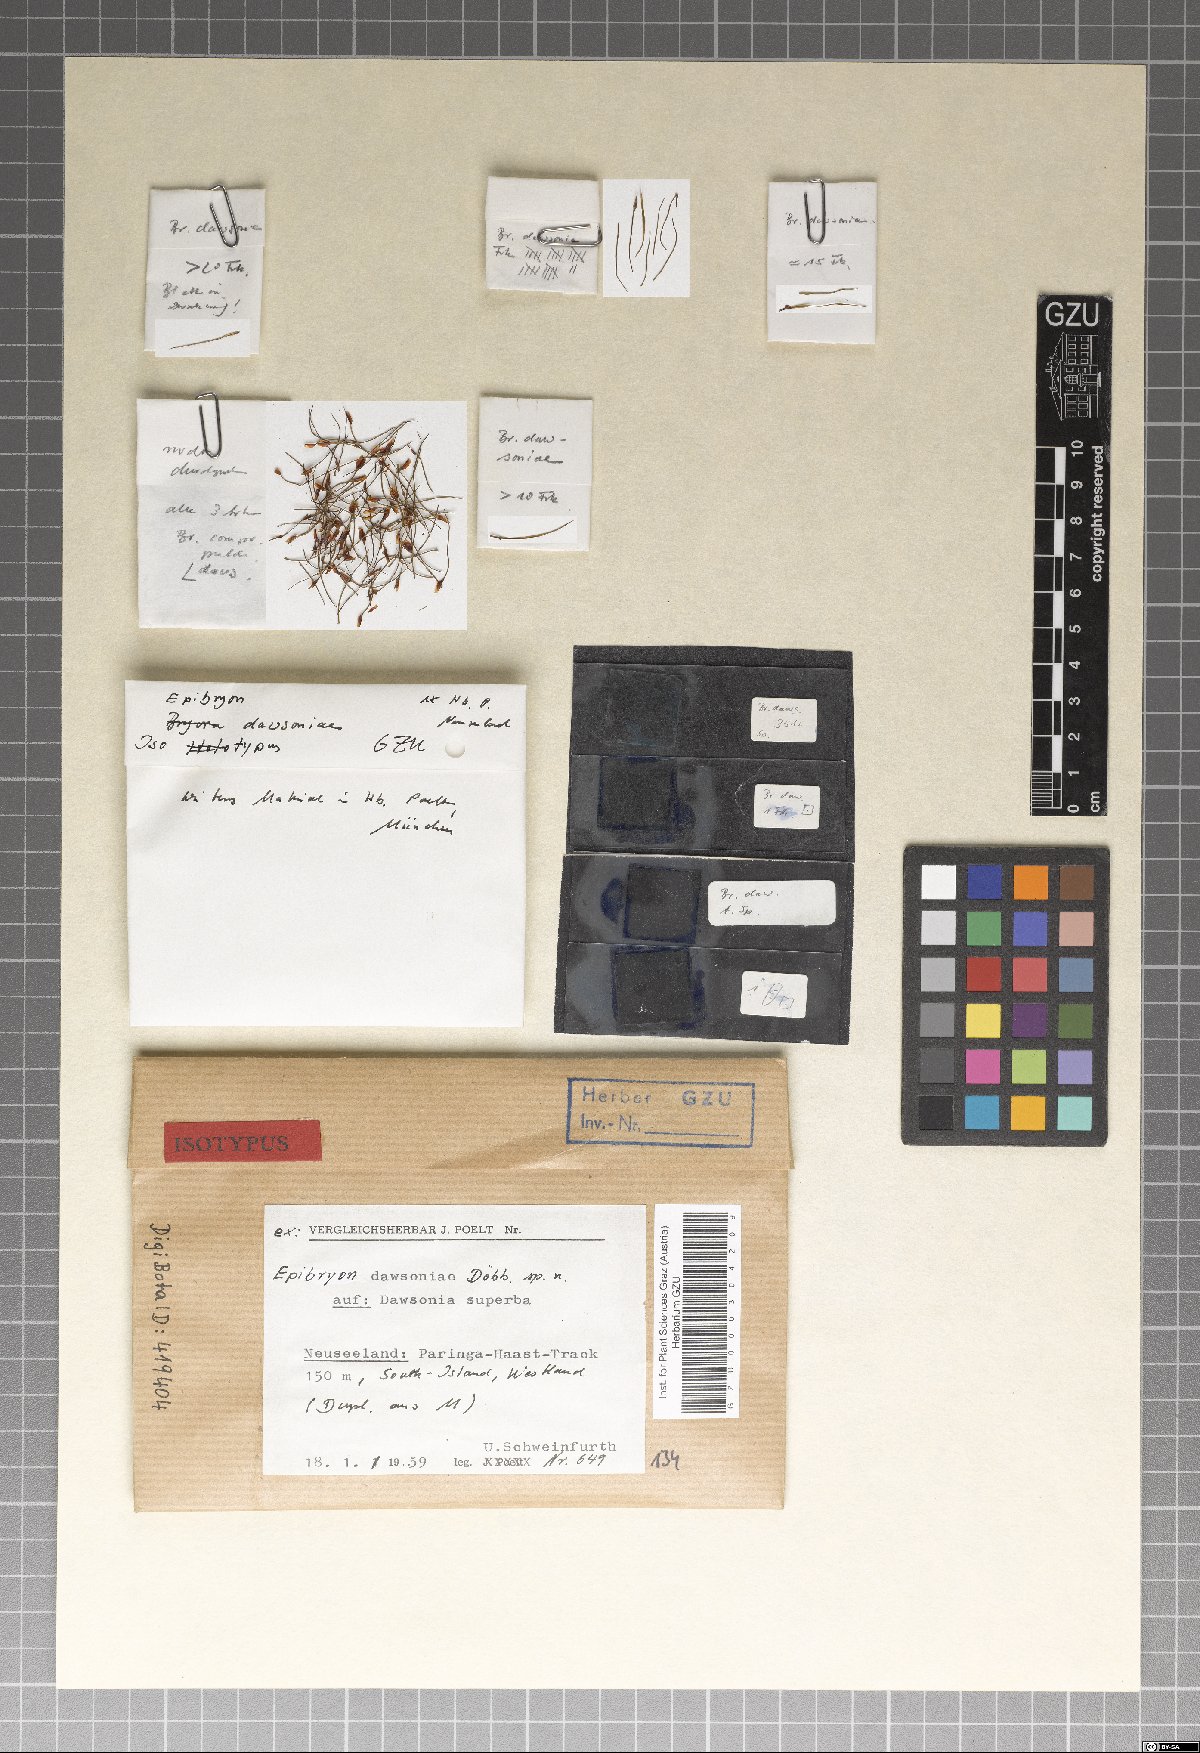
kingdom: Fungi
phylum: Ascomycota
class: Eurotiomycetes
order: Chaetothyriales
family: Epibryaceae
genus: Epibryon
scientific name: Epibryon dawsoniae
